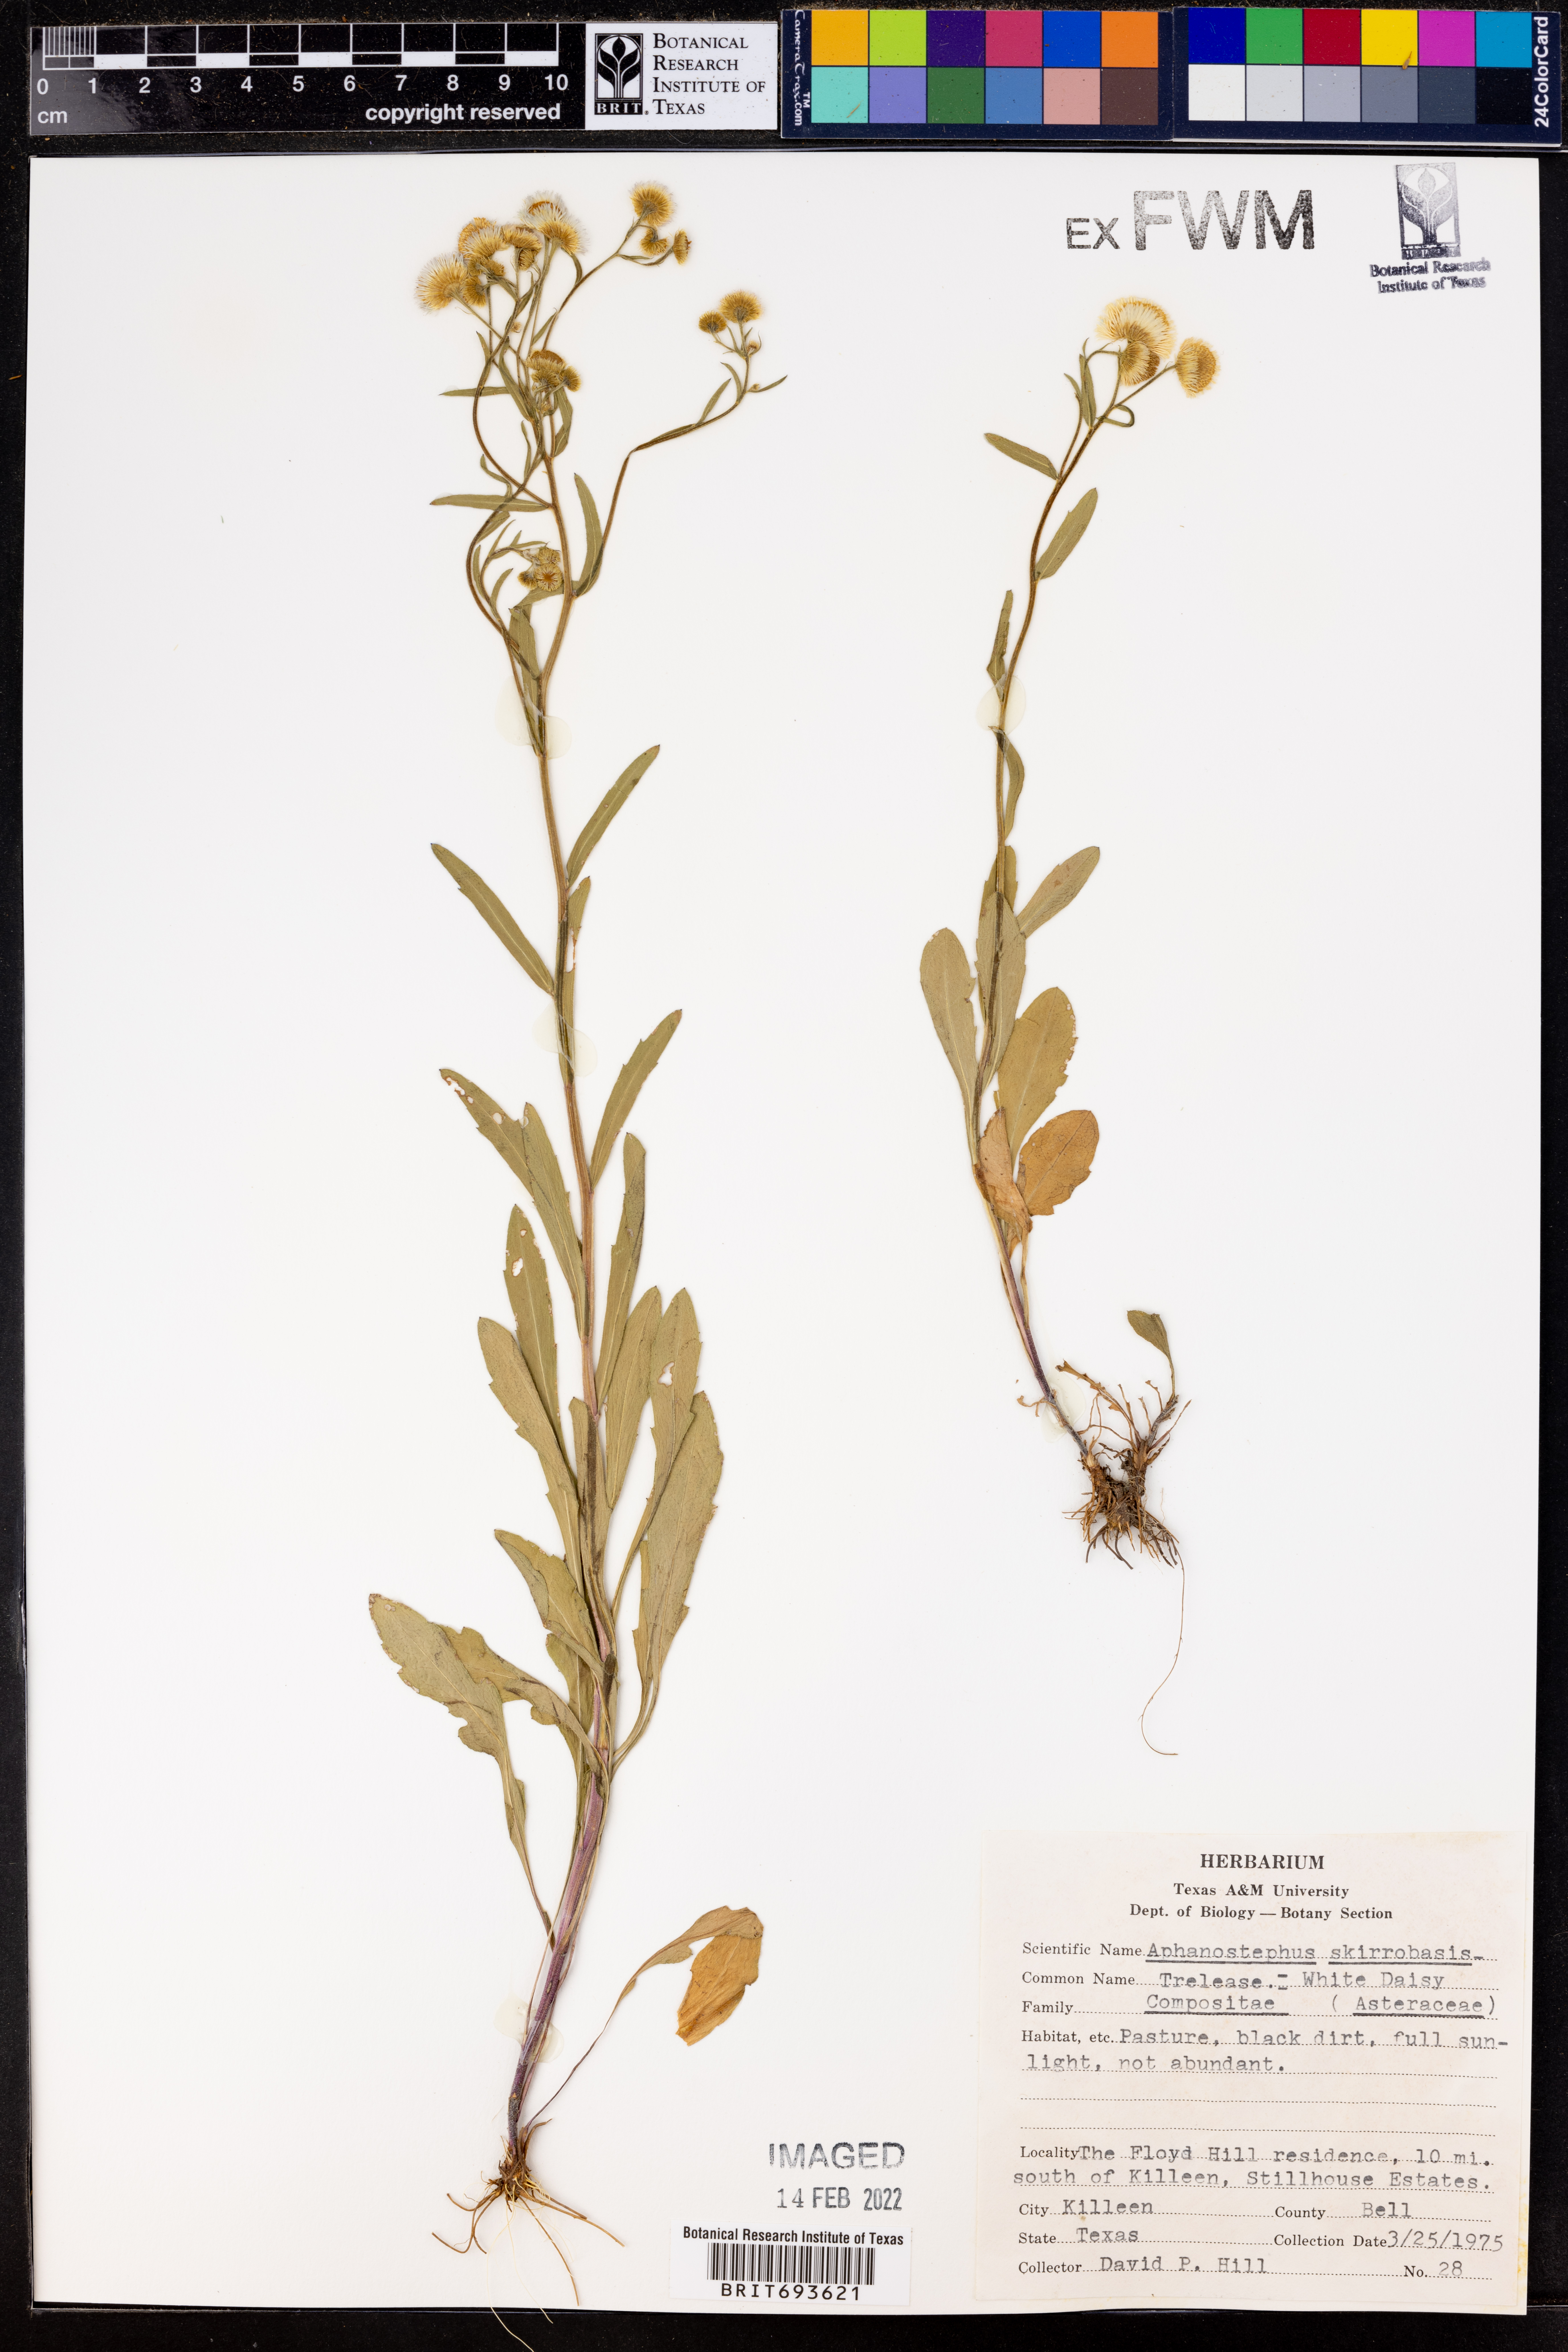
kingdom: Plantae
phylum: Tracheophyta
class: Magnoliopsida
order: Asterales
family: Asteraceae
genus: Aphanostephus
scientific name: Aphanostephus skirrhobasis
